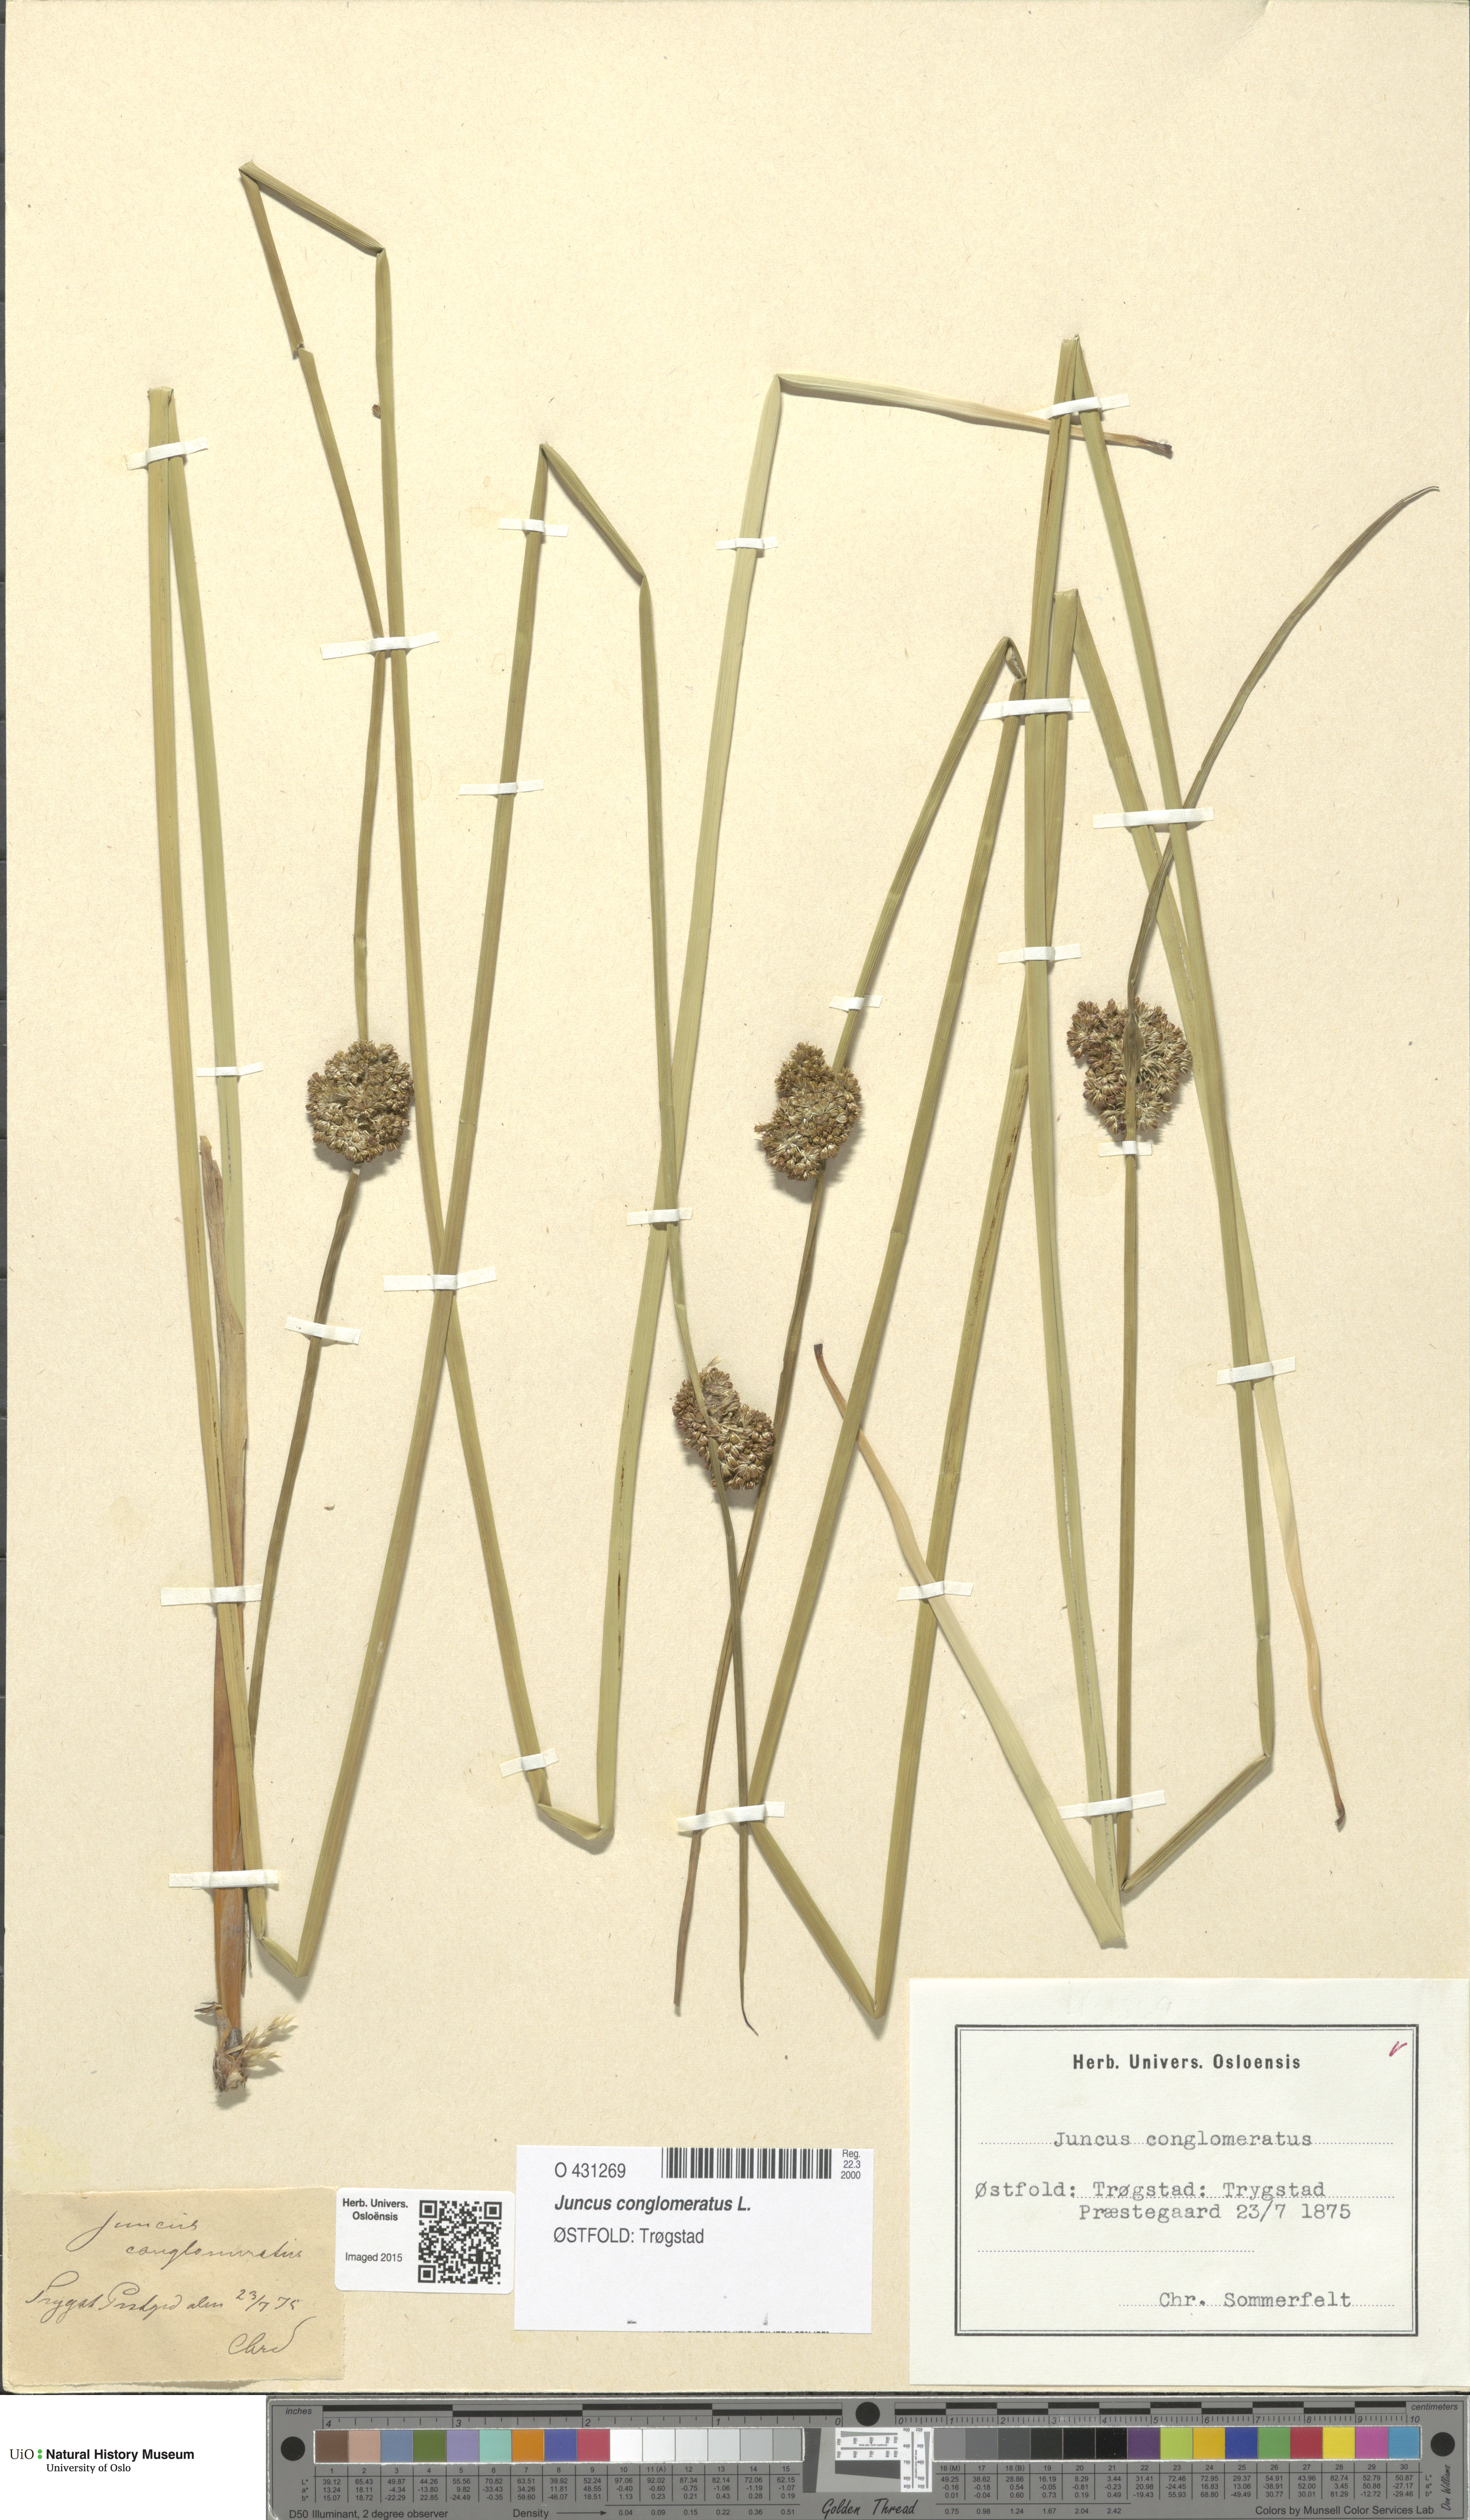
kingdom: Plantae
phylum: Tracheophyta
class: Liliopsida
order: Poales
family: Juncaceae
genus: Juncus
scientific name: Juncus conglomeratus
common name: Compact rush
